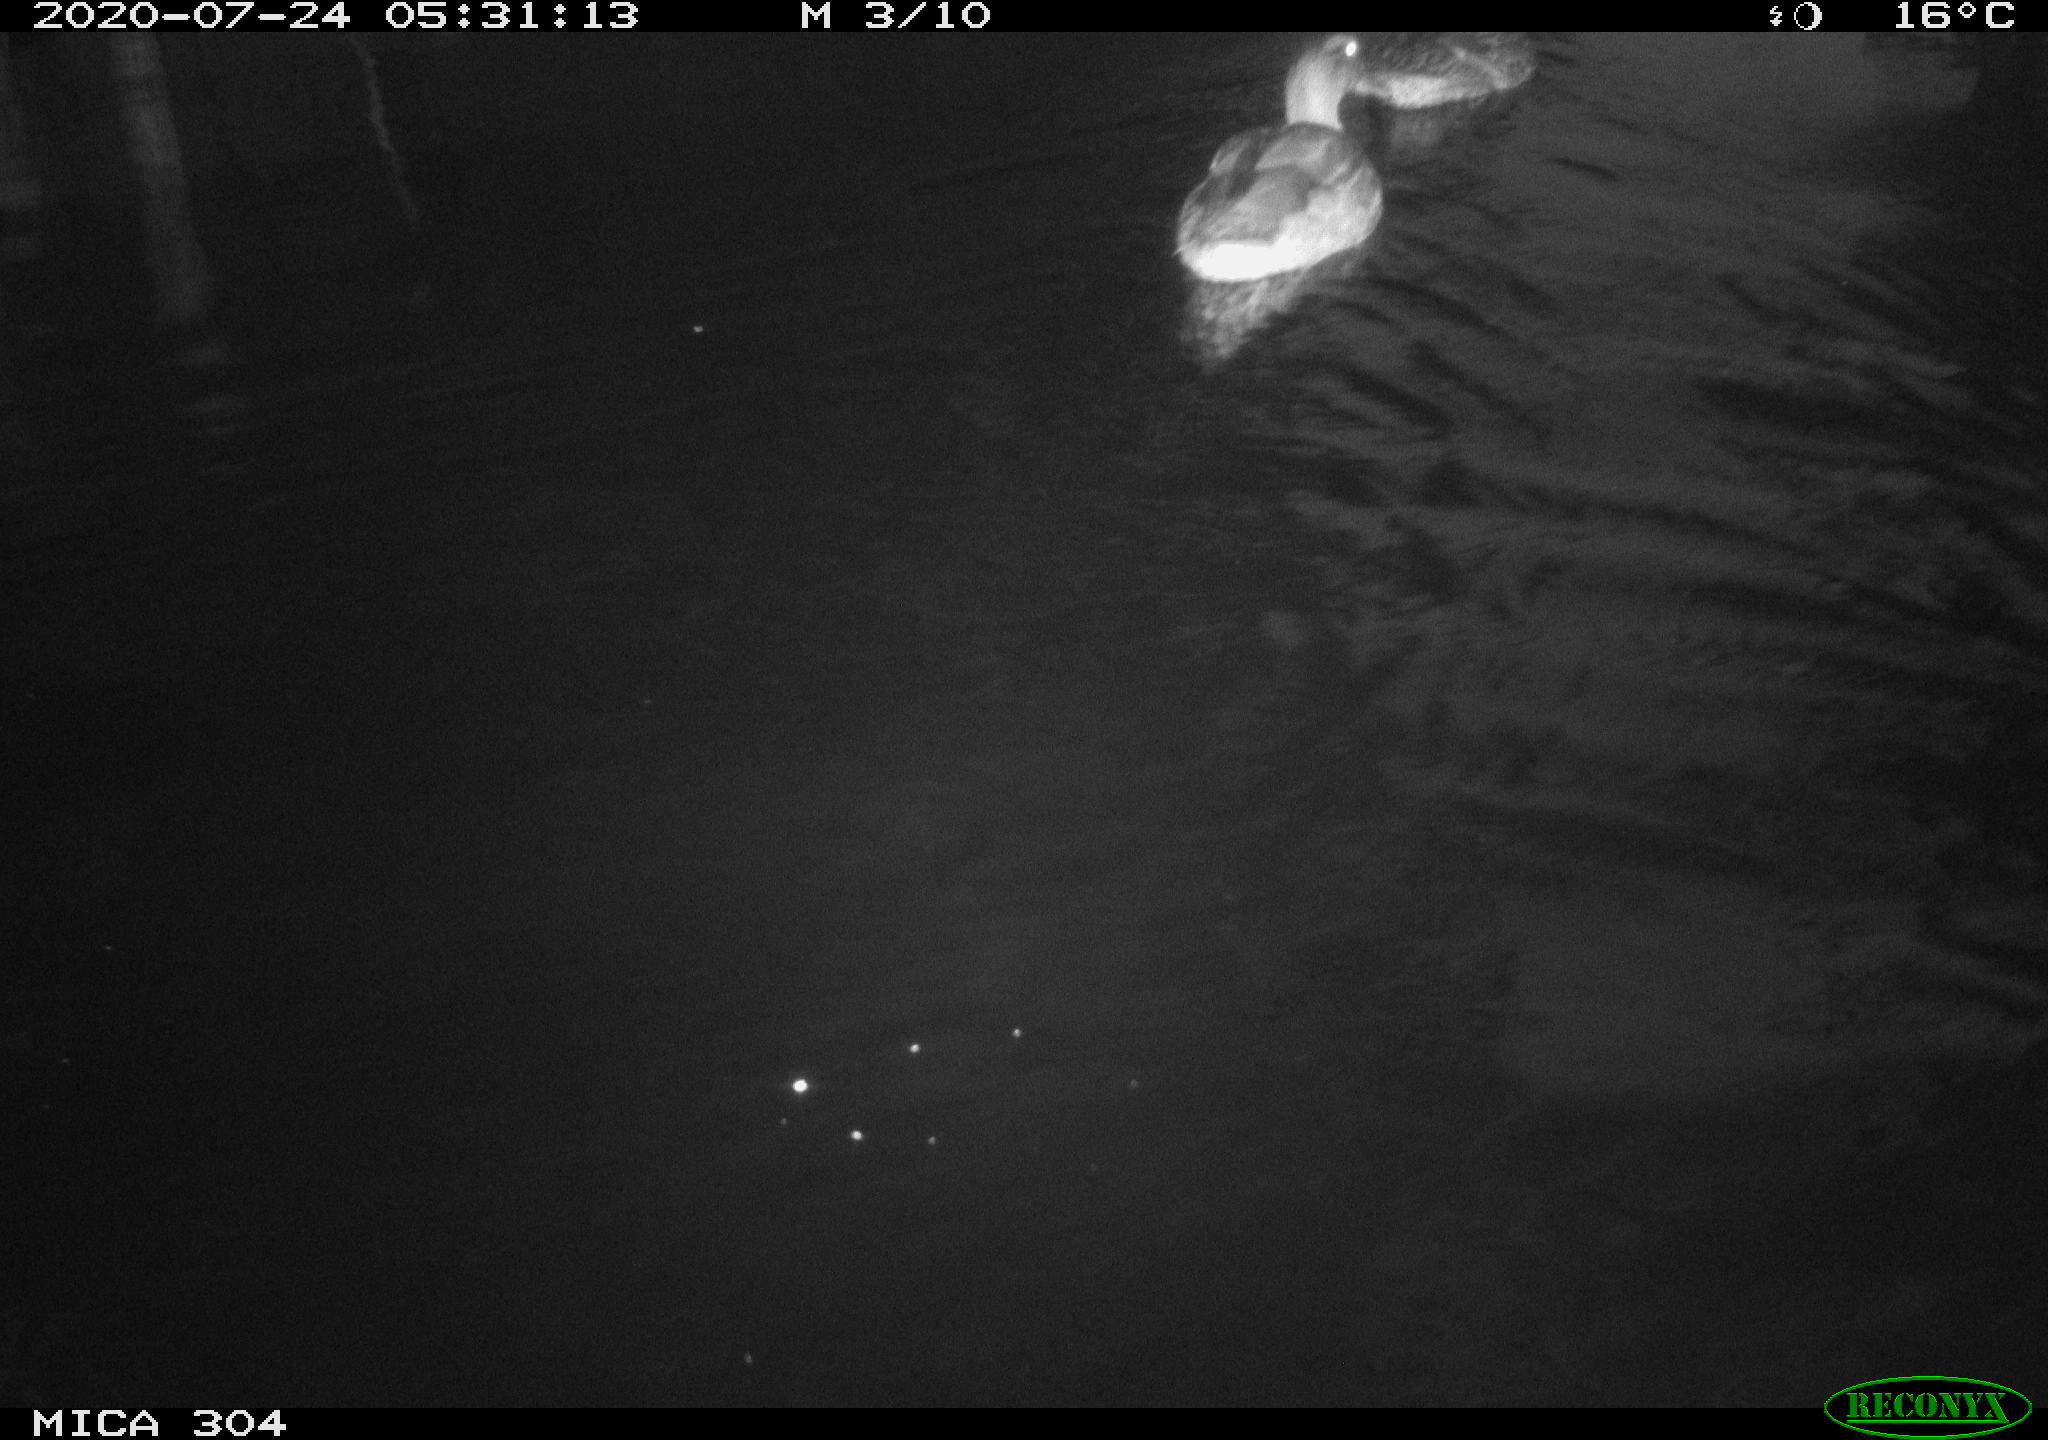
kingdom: Animalia
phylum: Chordata
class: Aves
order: Anseriformes
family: Anatidae
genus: Anas
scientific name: Anas platyrhynchos
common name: Mallard
